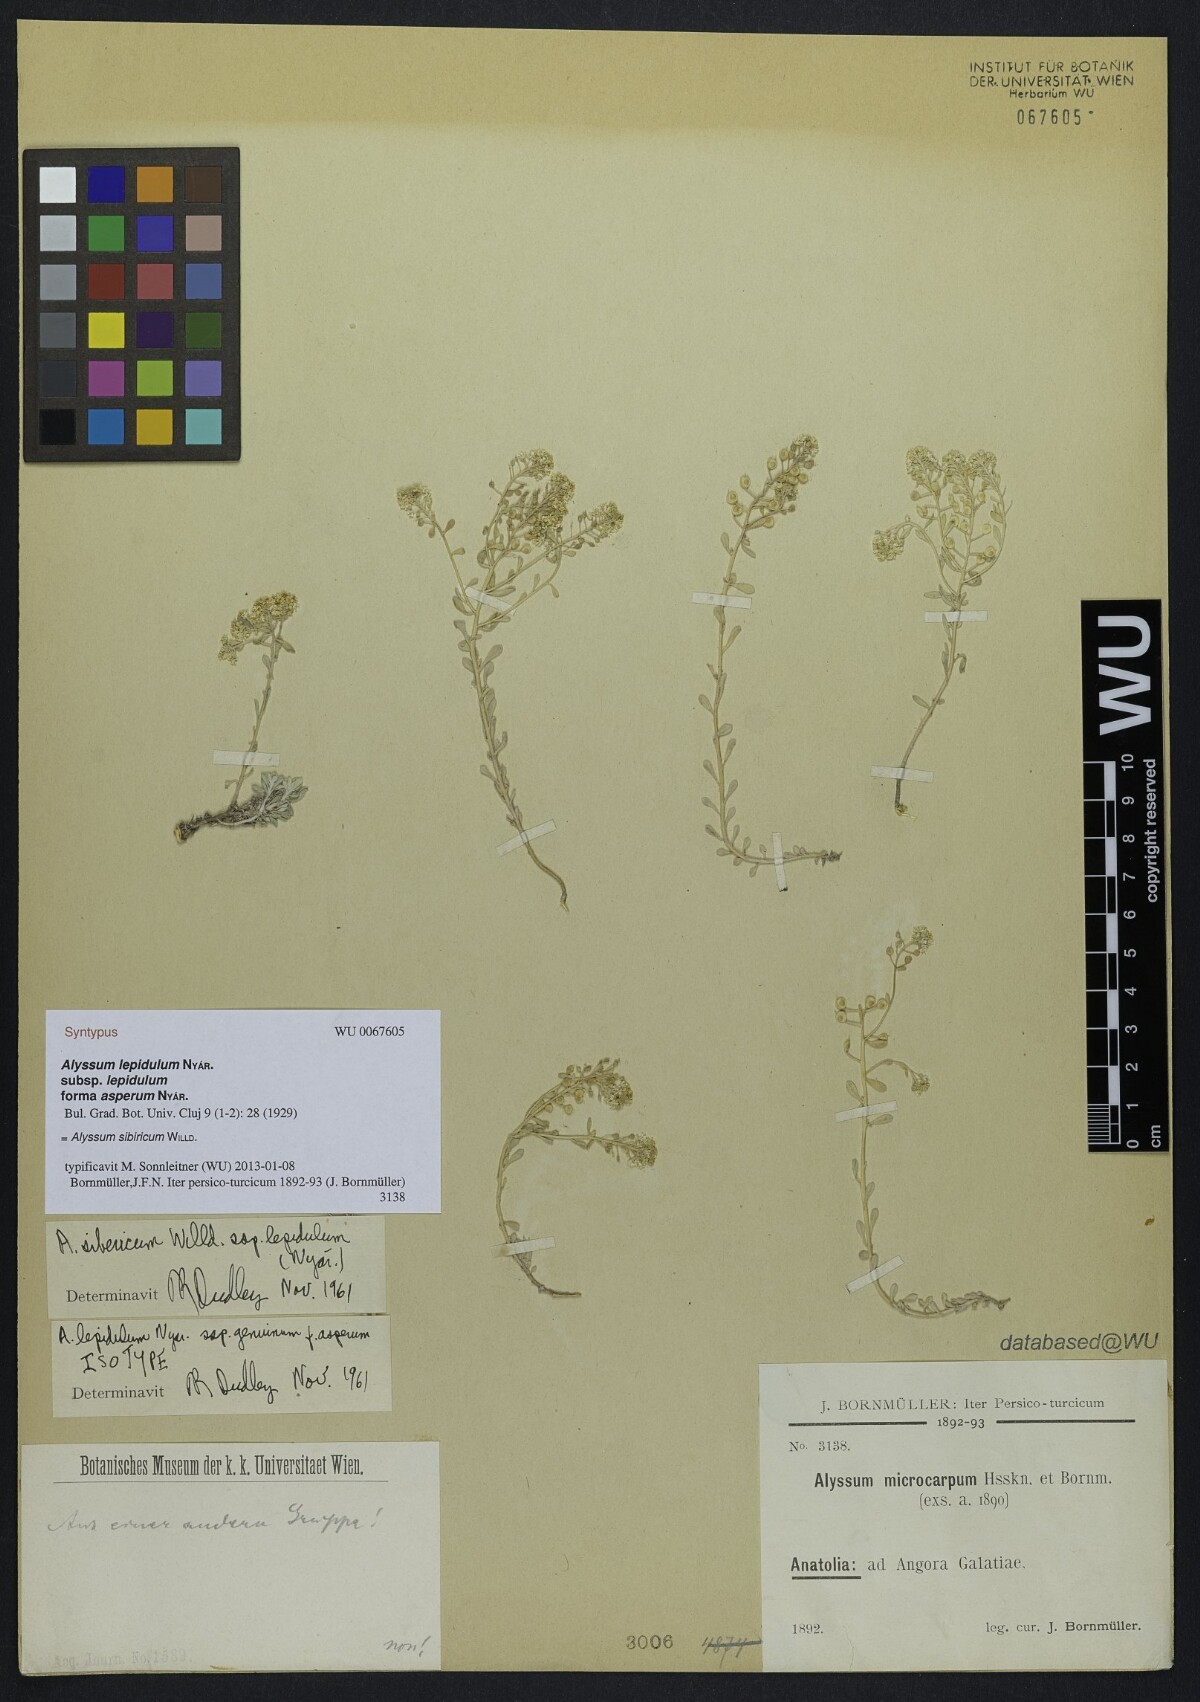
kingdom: Plantae
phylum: Tracheophyta
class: Magnoliopsida
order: Brassicales
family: Brassicaceae
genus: Odontarrhena
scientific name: Odontarrhena sibirica
